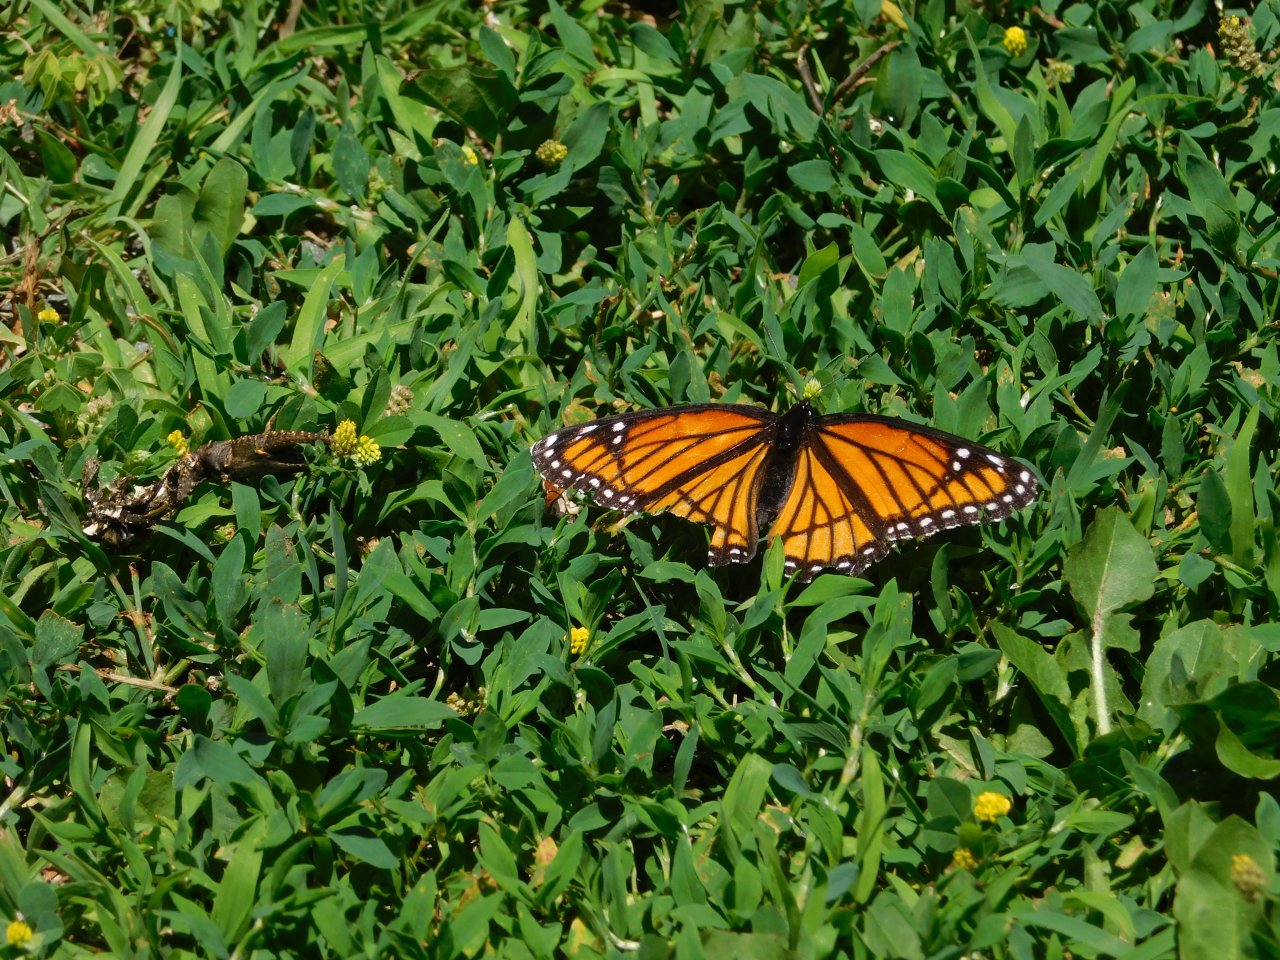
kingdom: Animalia
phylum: Arthropoda
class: Insecta
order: Lepidoptera
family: Nymphalidae
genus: Limenitis
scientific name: Limenitis archippus
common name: Viceroy
